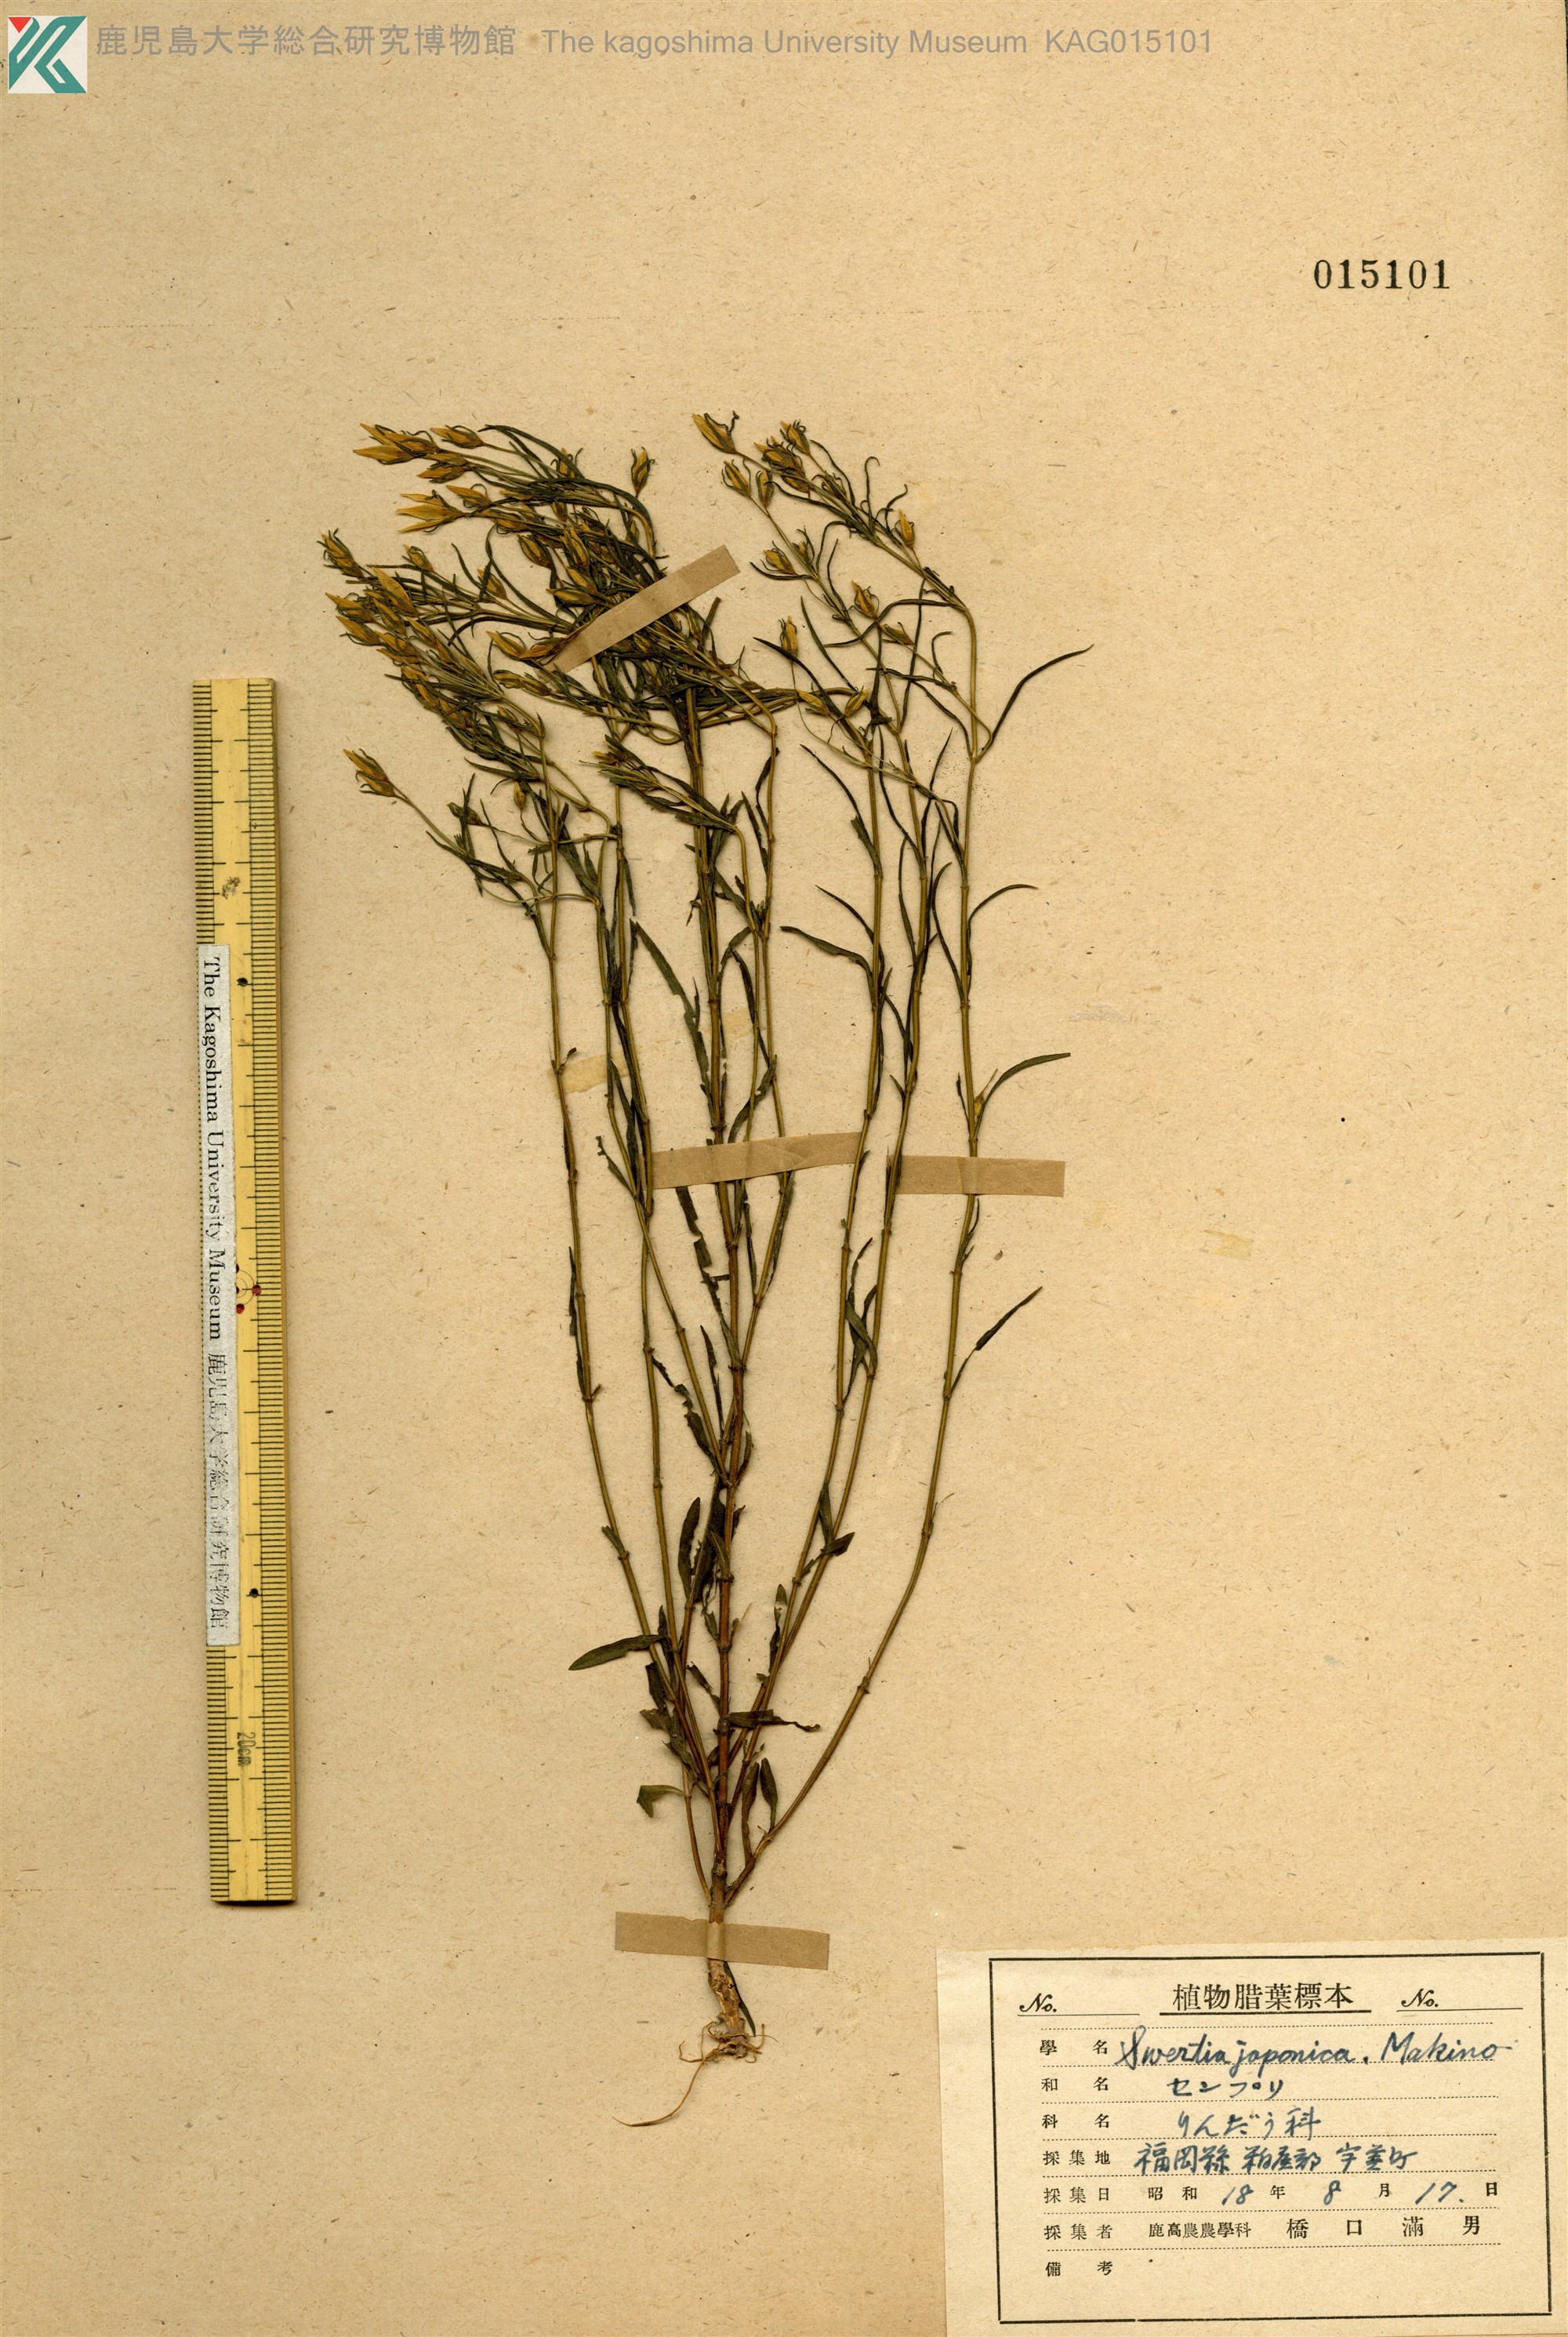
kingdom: Plantae
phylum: Tracheophyta
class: Magnoliopsida
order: Gentianales
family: Gentianaceae
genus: Swertia
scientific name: Swertia japonica
